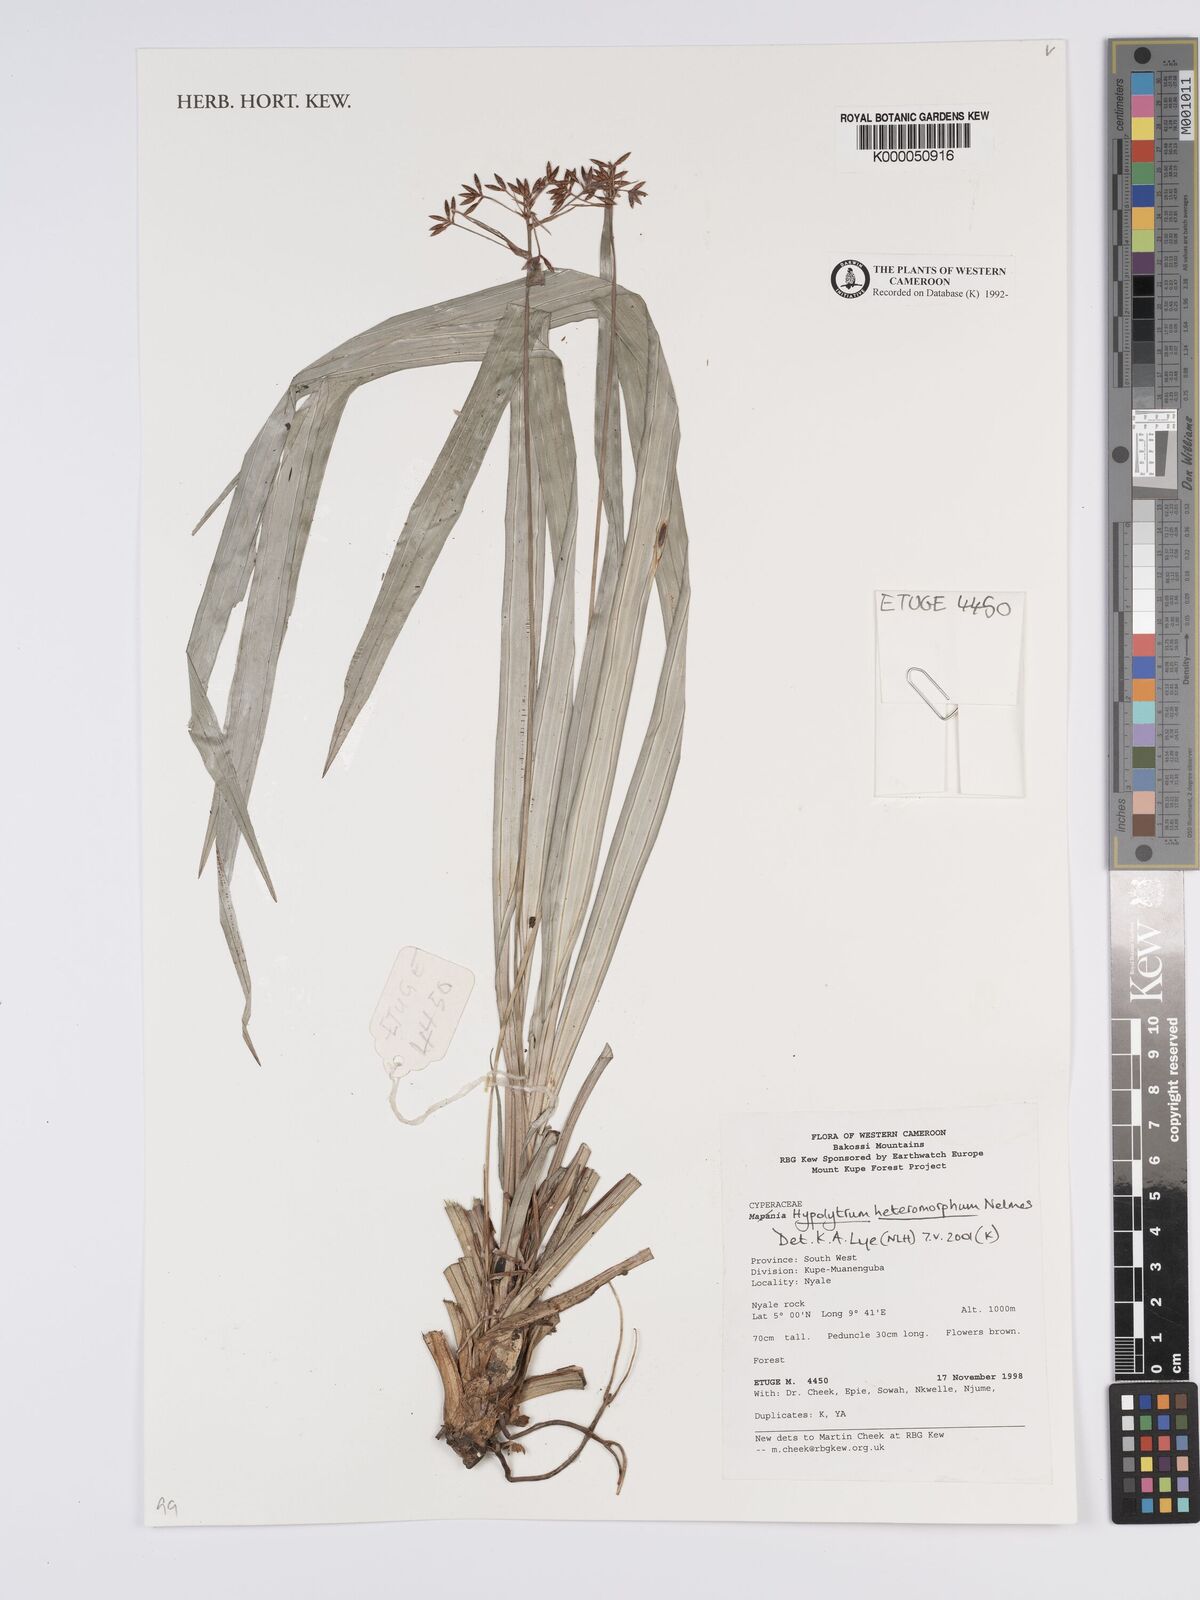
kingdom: Plantae
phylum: Tracheophyta
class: Liliopsida
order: Poales
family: Cyperaceae
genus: Hypolytrum
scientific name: Hypolytrum heteromorphum
